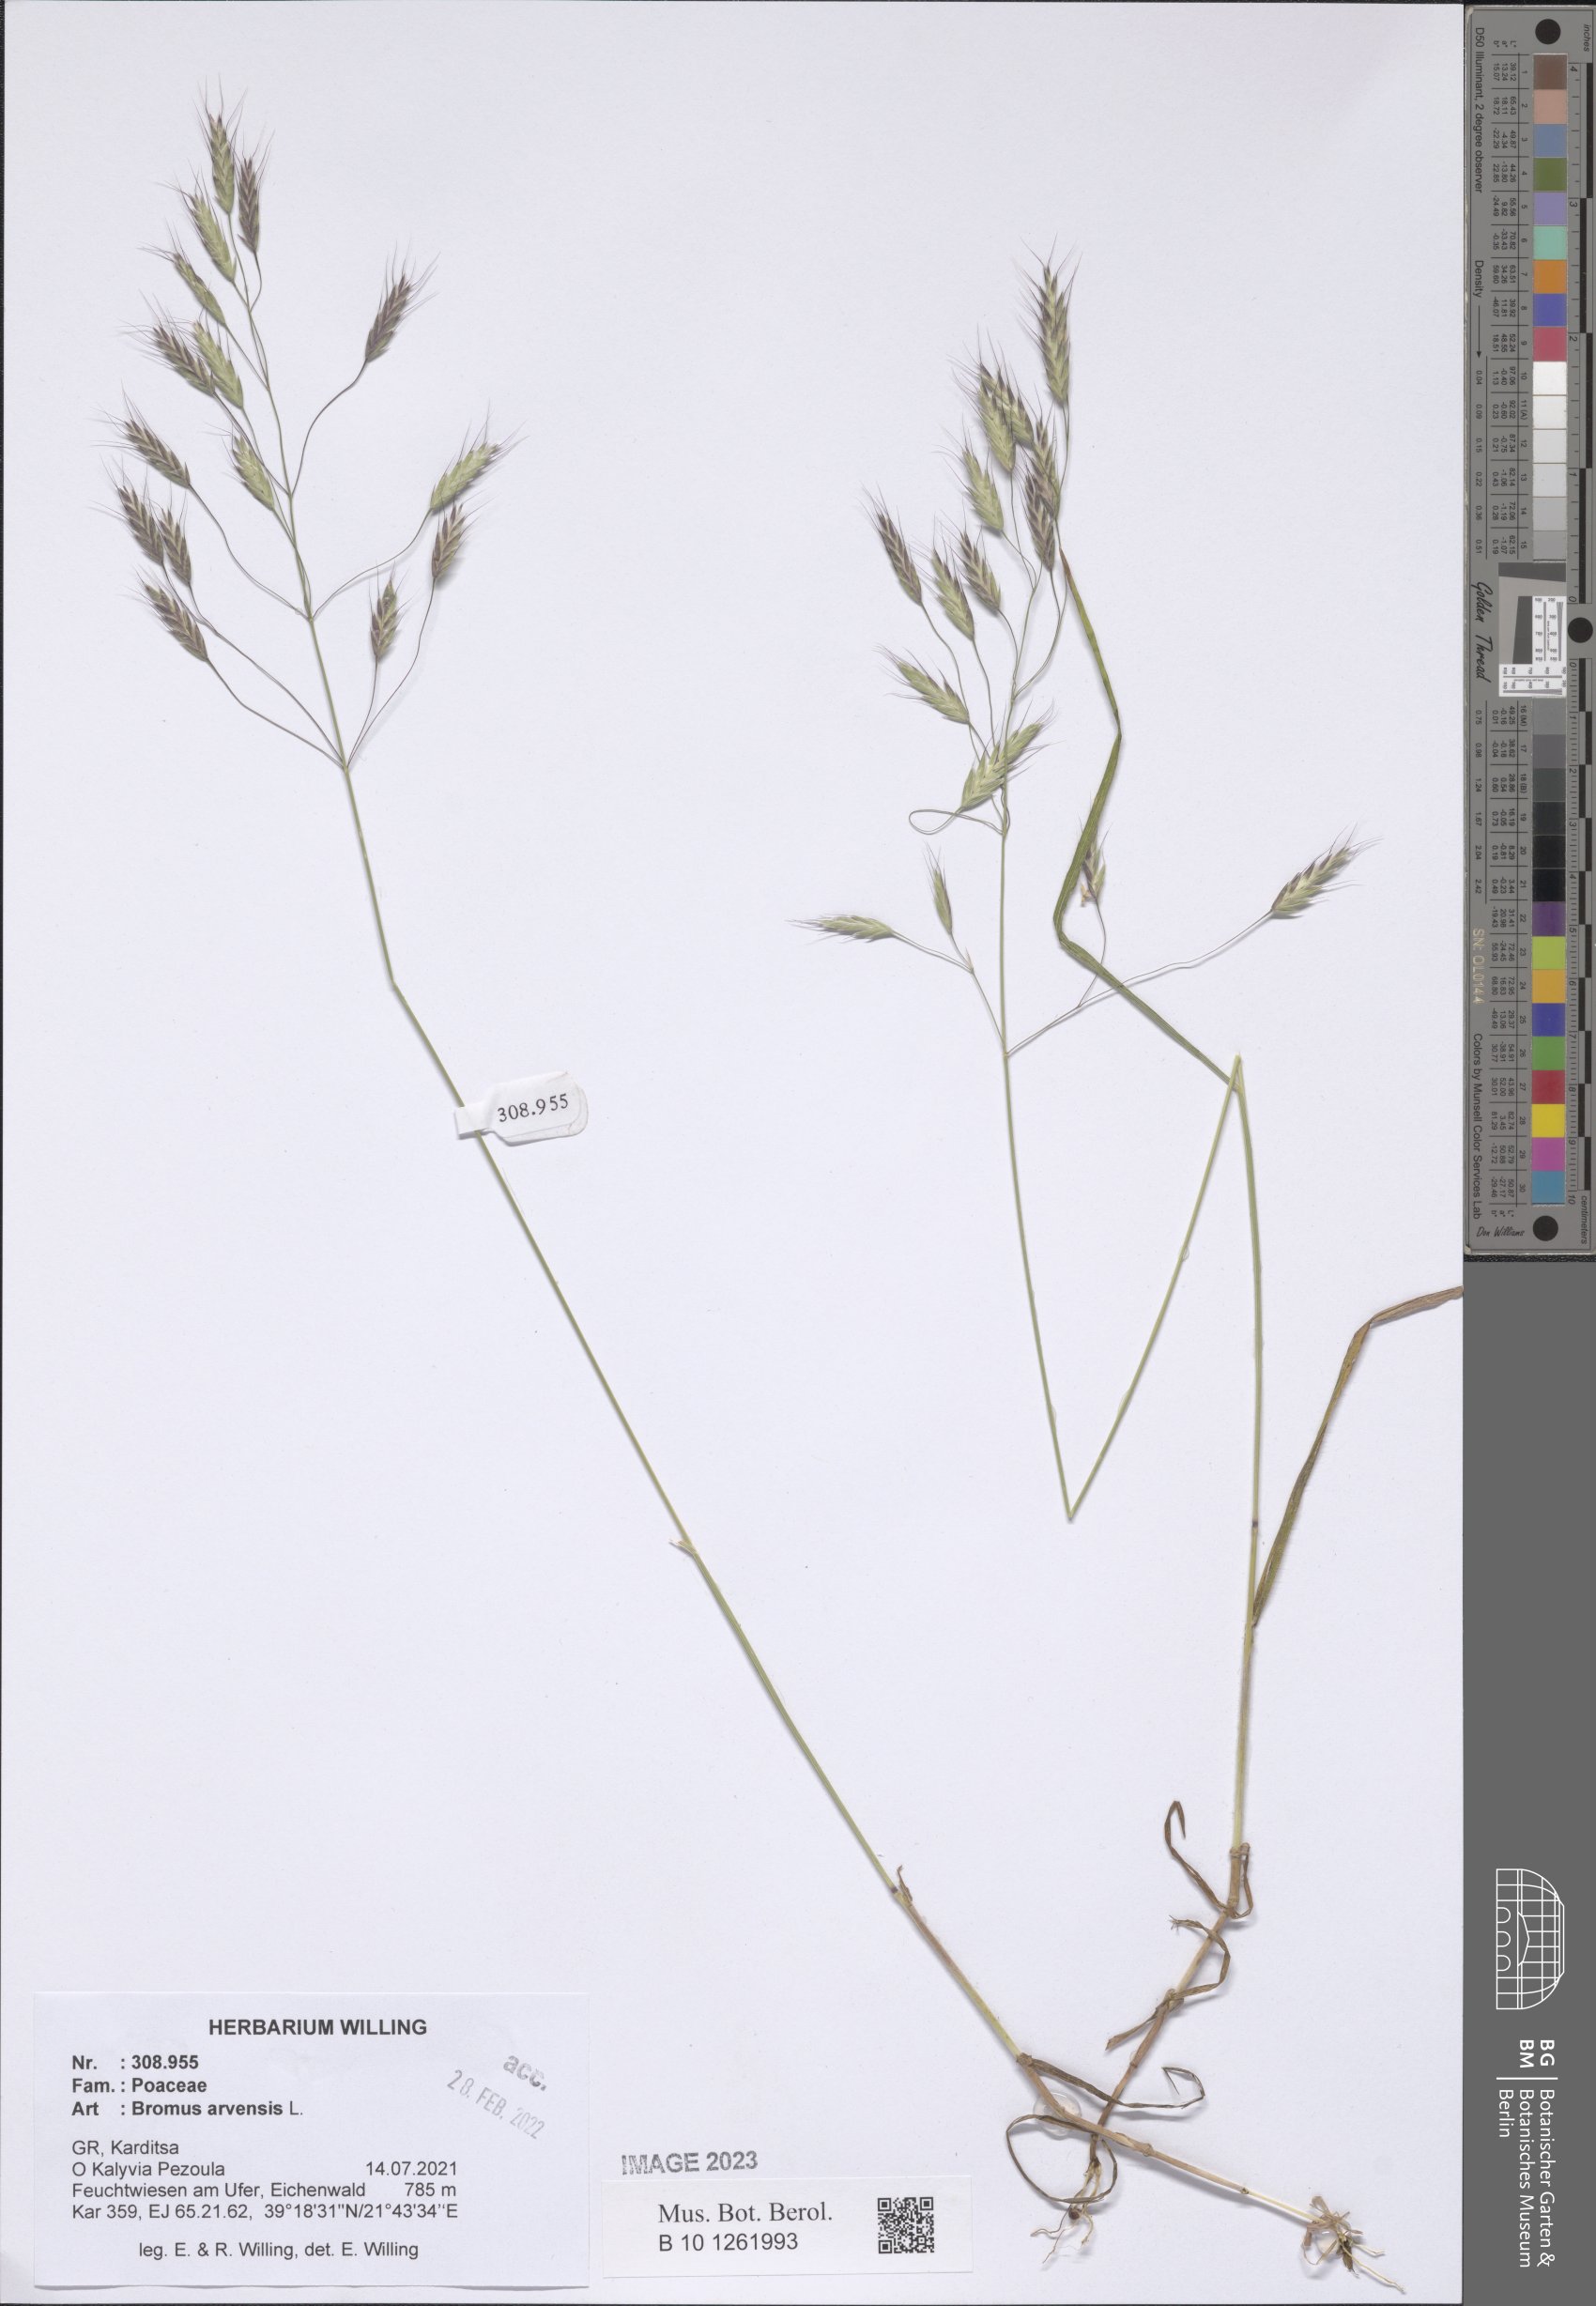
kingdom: Plantae
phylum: Tracheophyta
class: Liliopsida
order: Poales
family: Poaceae
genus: Bromus
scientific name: Bromus arvensis
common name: Field brome
